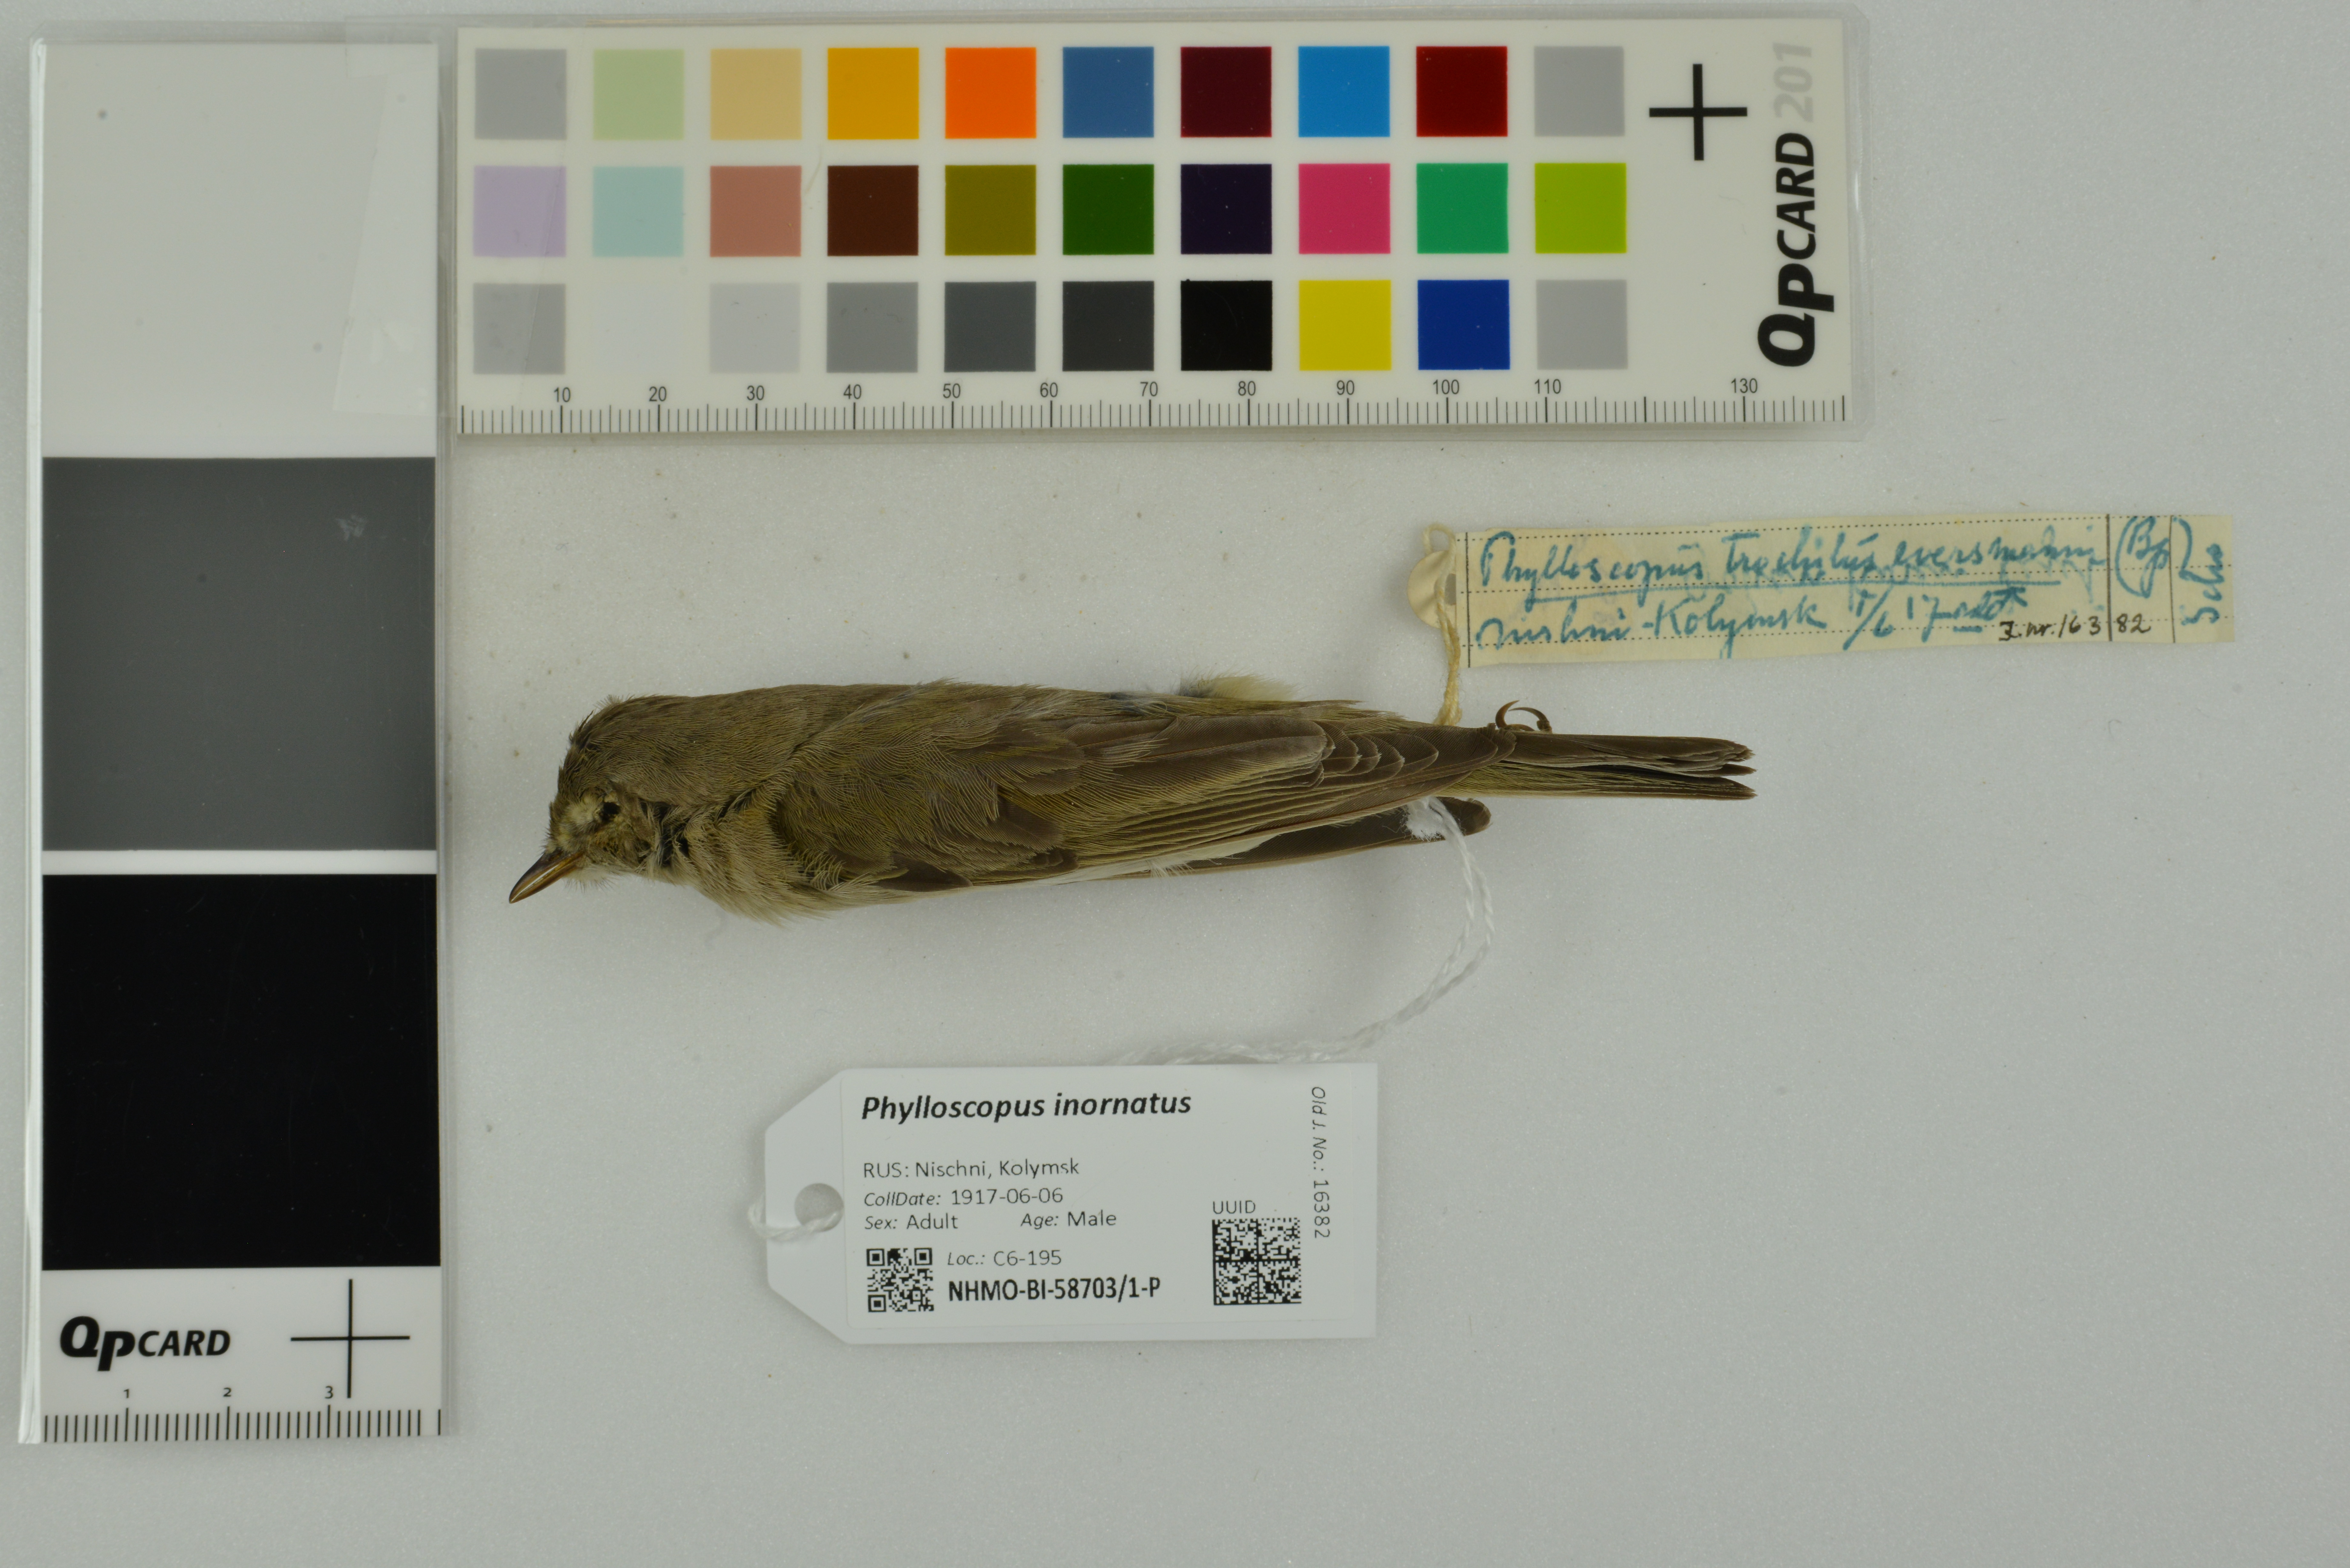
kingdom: Animalia
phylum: Chordata
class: Aves
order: Passeriformes
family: Phylloscopidae
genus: Phylloscopus
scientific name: Phylloscopus inornatus
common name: Yellow-browed warbler
